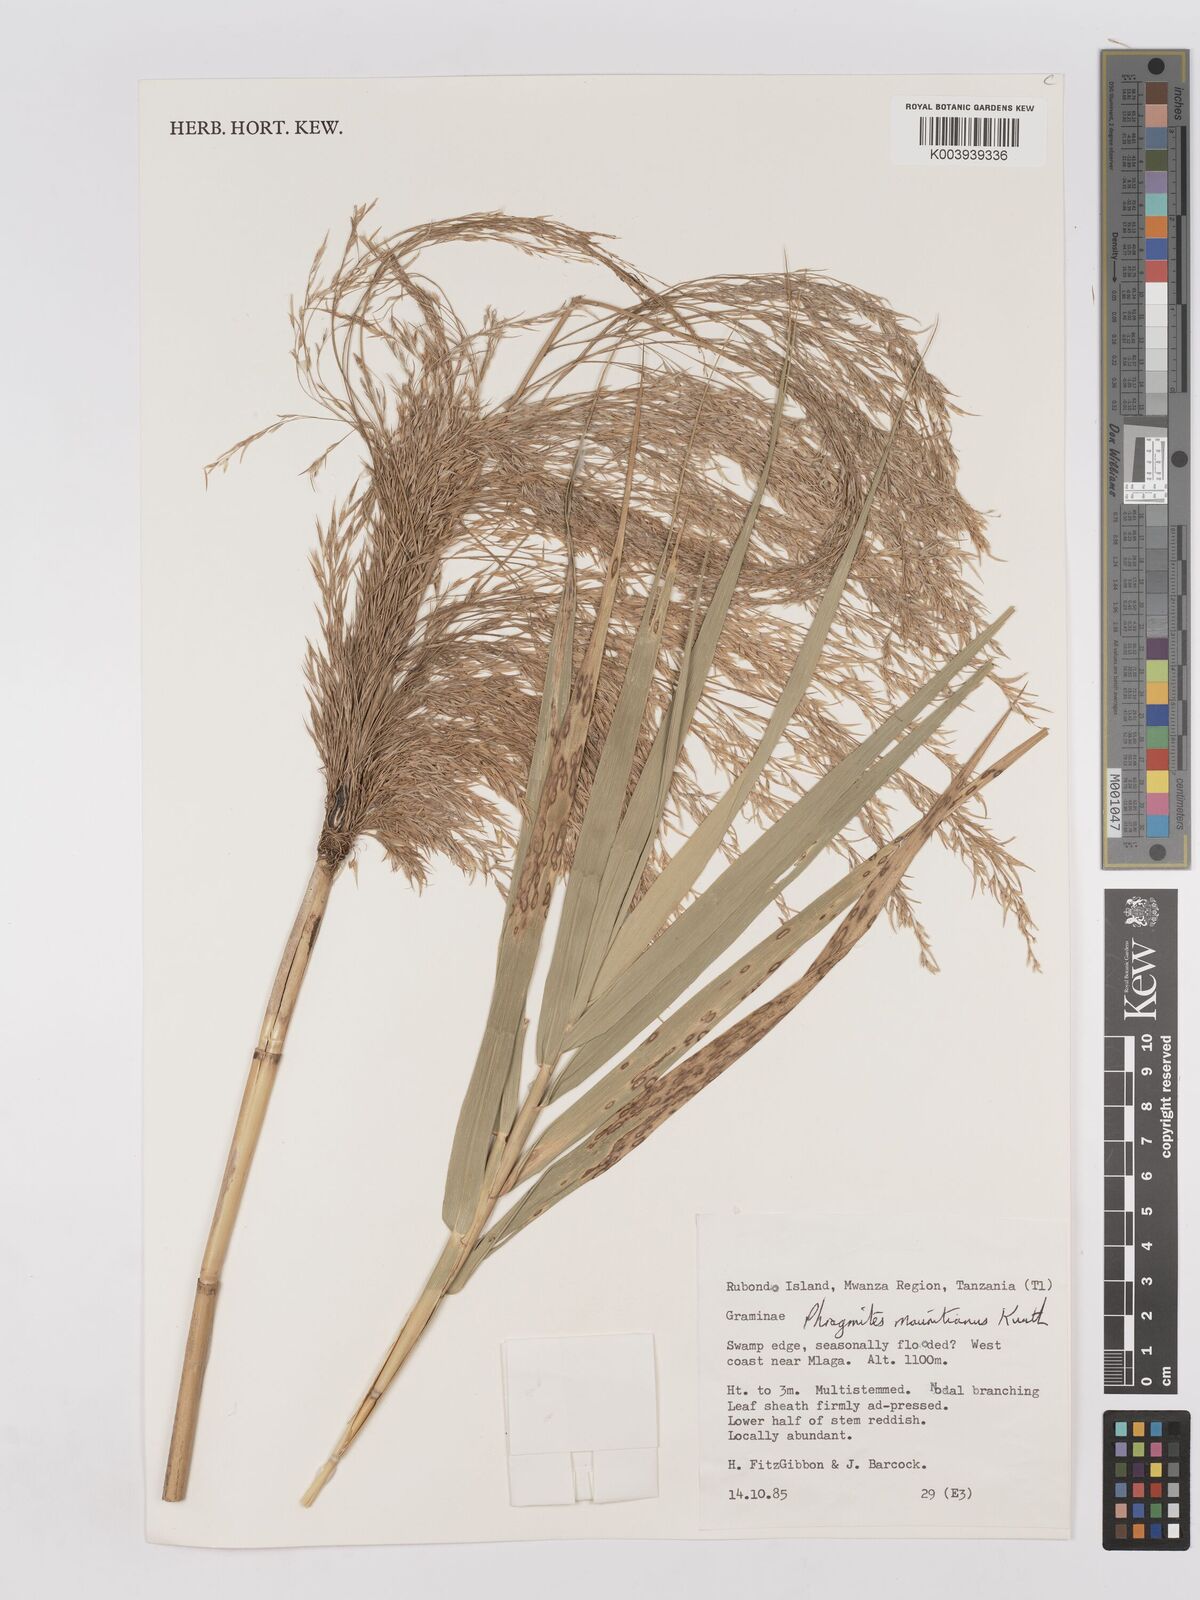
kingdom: Plantae
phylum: Tracheophyta
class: Liliopsida
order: Poales
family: Poaceae
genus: Phragmites
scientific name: Phragmites mauritianus
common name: Reed grass
